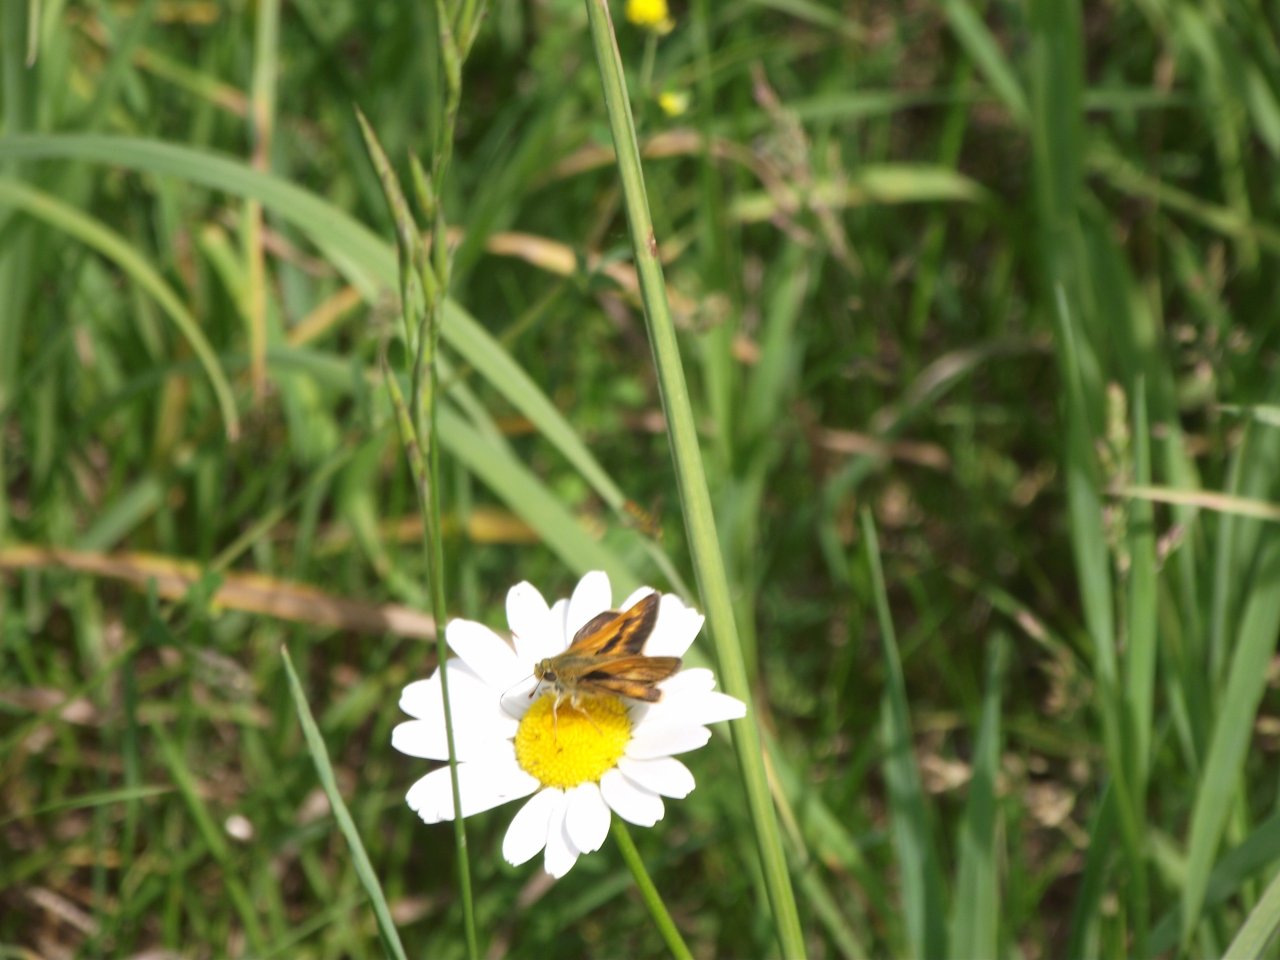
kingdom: Animalia
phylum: Arthropoda
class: Insecta
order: Lepidoptera
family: Hesperiidae
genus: Polites
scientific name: Polites
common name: Long Dash Skipper
